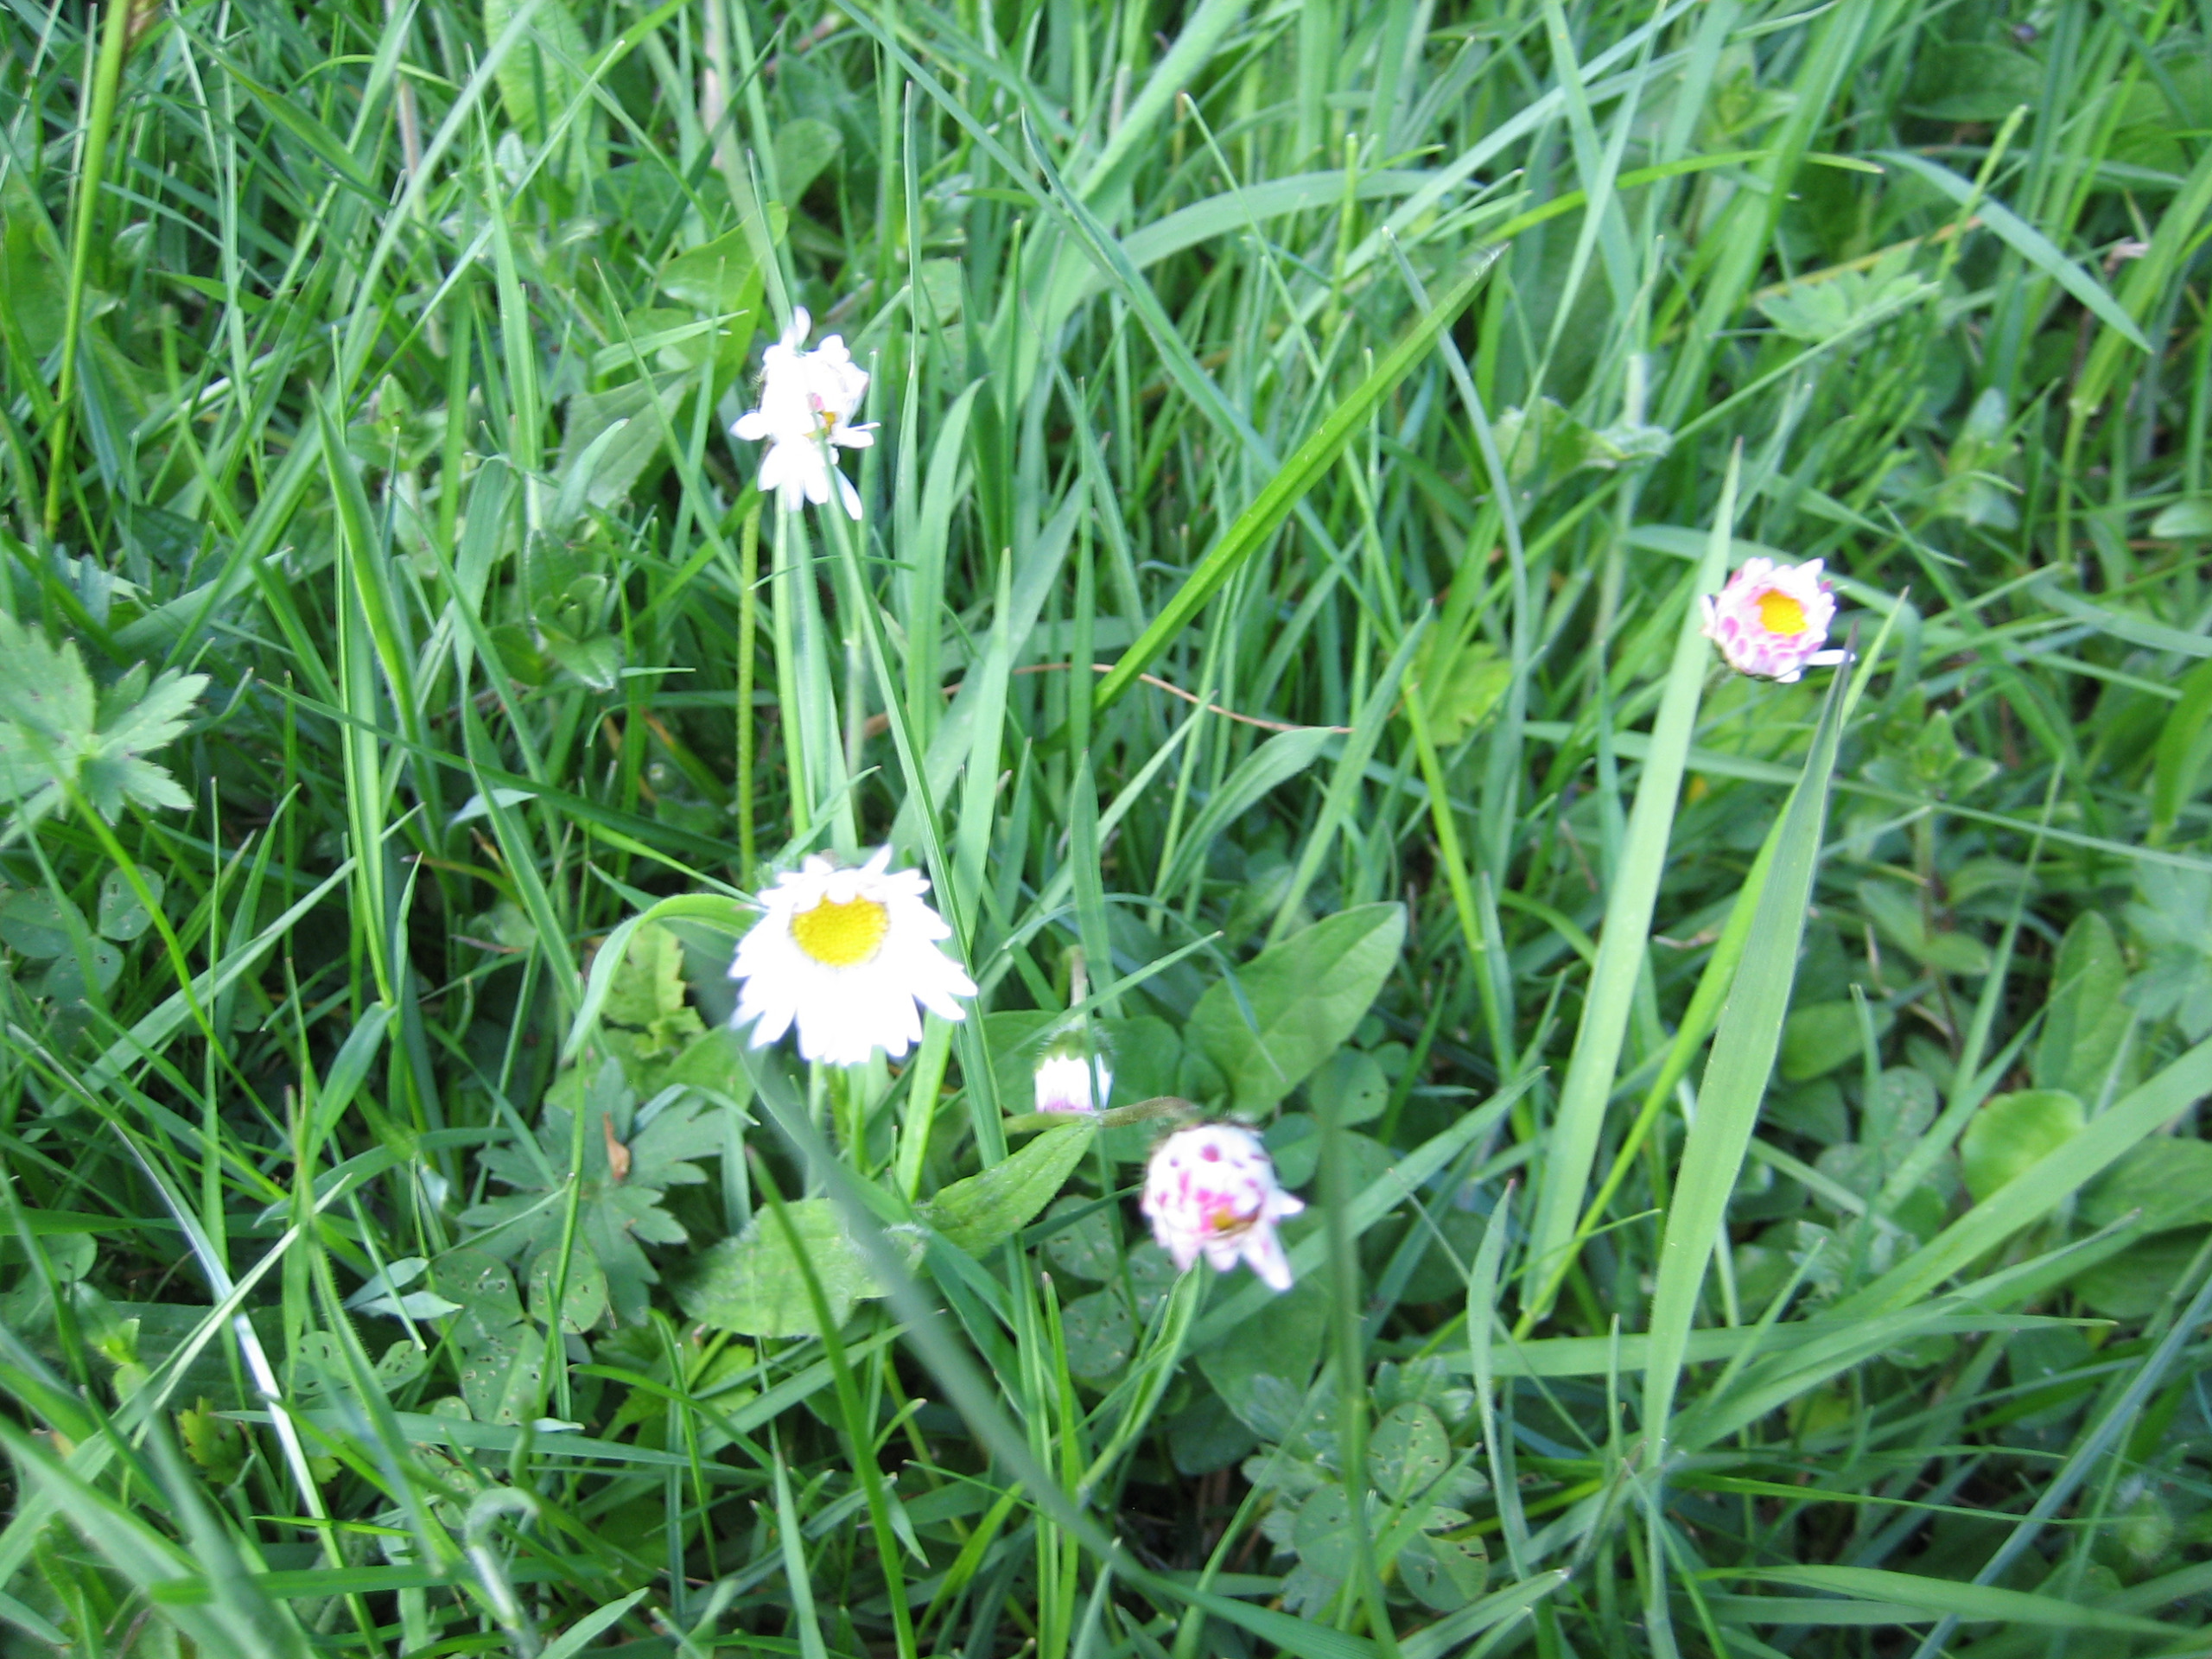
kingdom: Plantae
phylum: Tracheophyta
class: Magnoliopsida
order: Asterales
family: Asteraceae
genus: Bellis
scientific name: Bellis perennis
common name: Tusindfryd
